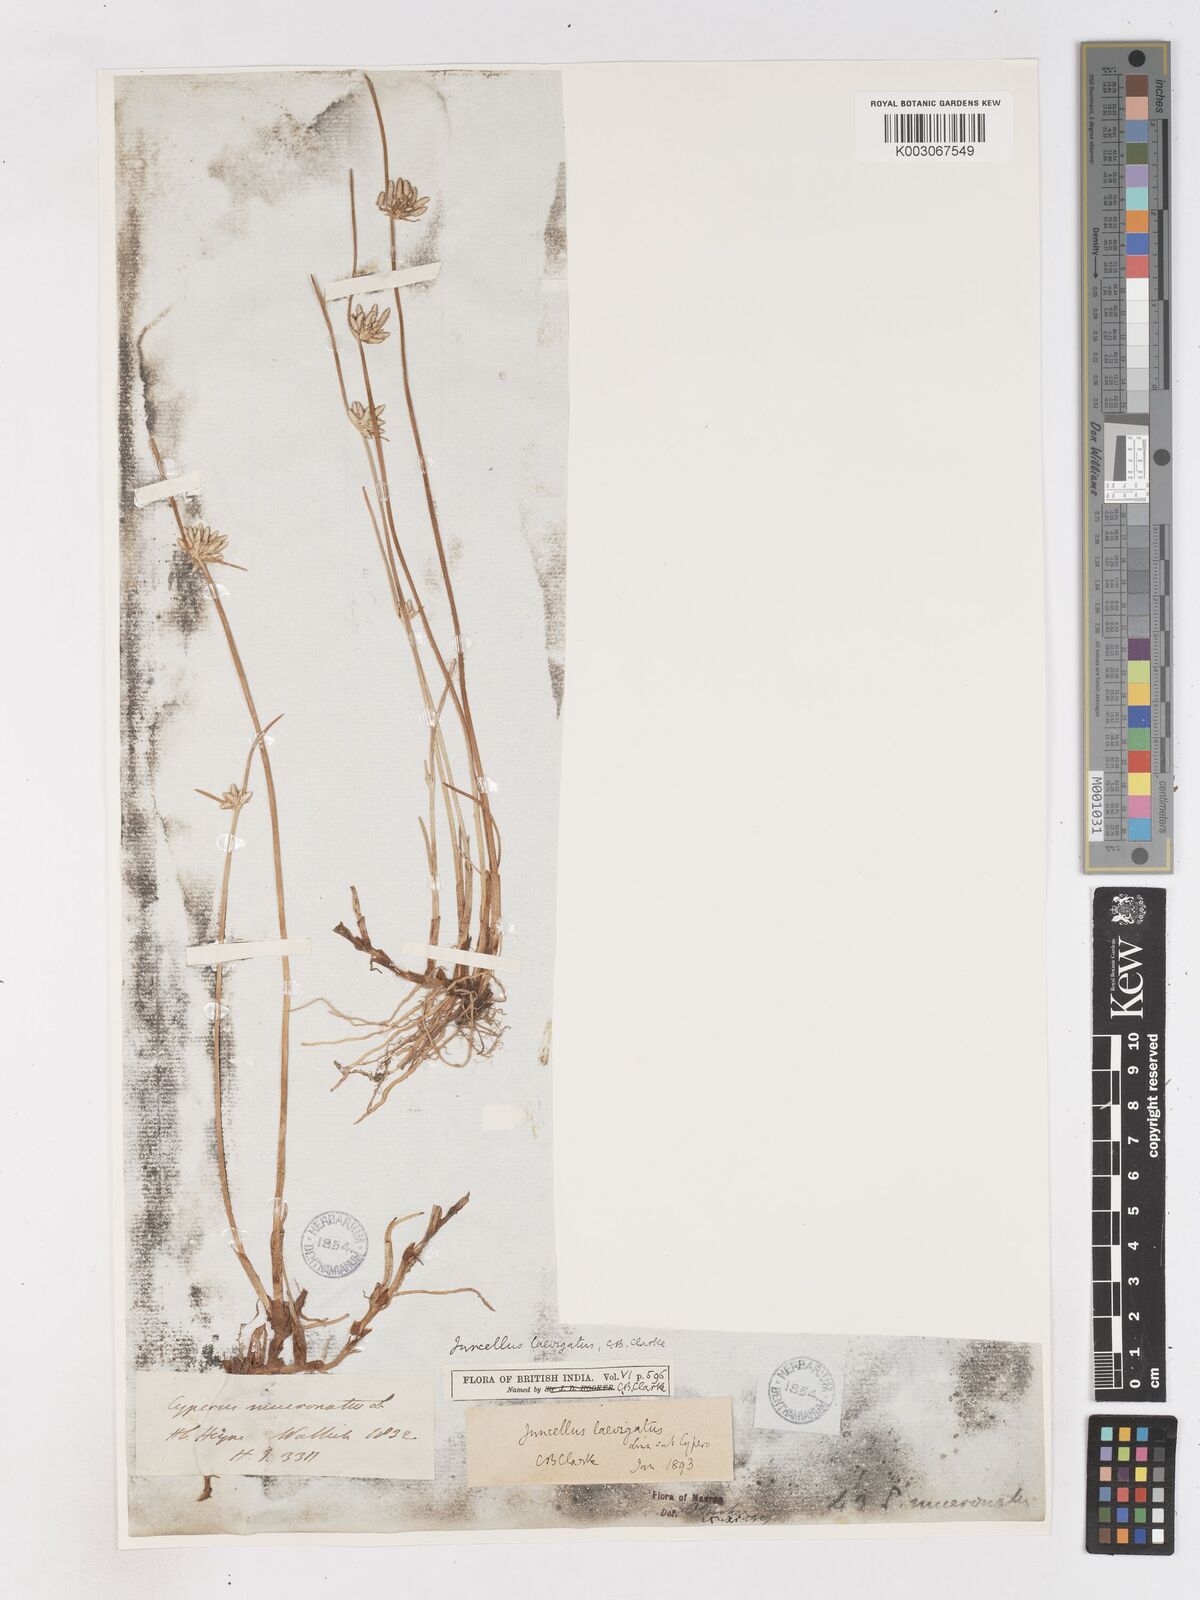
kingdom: Plantae
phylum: Tracheophyta
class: Liliopsida
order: Poales
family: Cyperaceae
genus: Cyperus
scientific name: Cyperus laevigatus
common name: Smooth flat sedge
